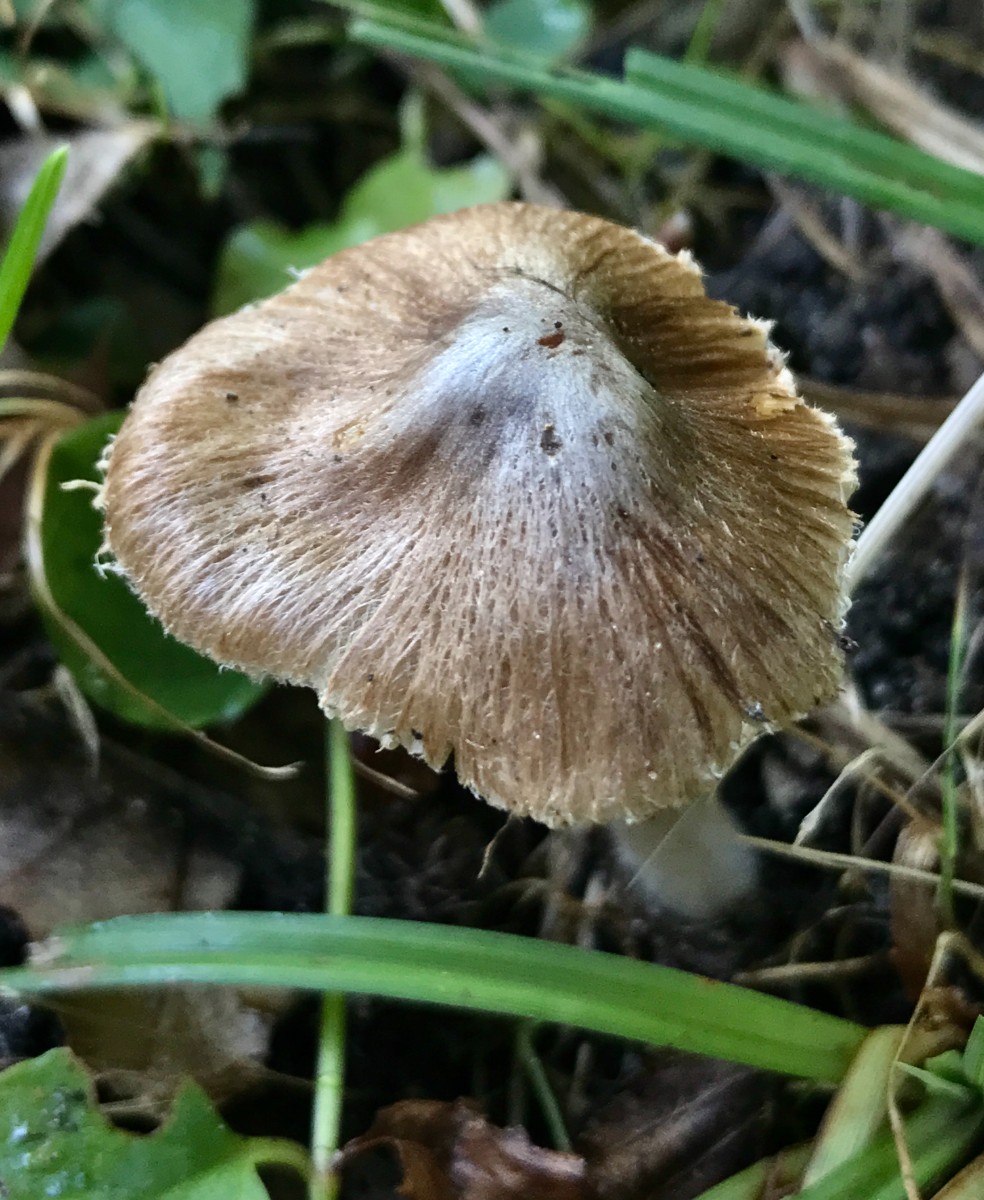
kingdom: Fungi
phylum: Basidiomycota
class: Agaricomycetes
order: Agaricales
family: Inocybaceae
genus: Pseudosperma
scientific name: Pseudosperma
